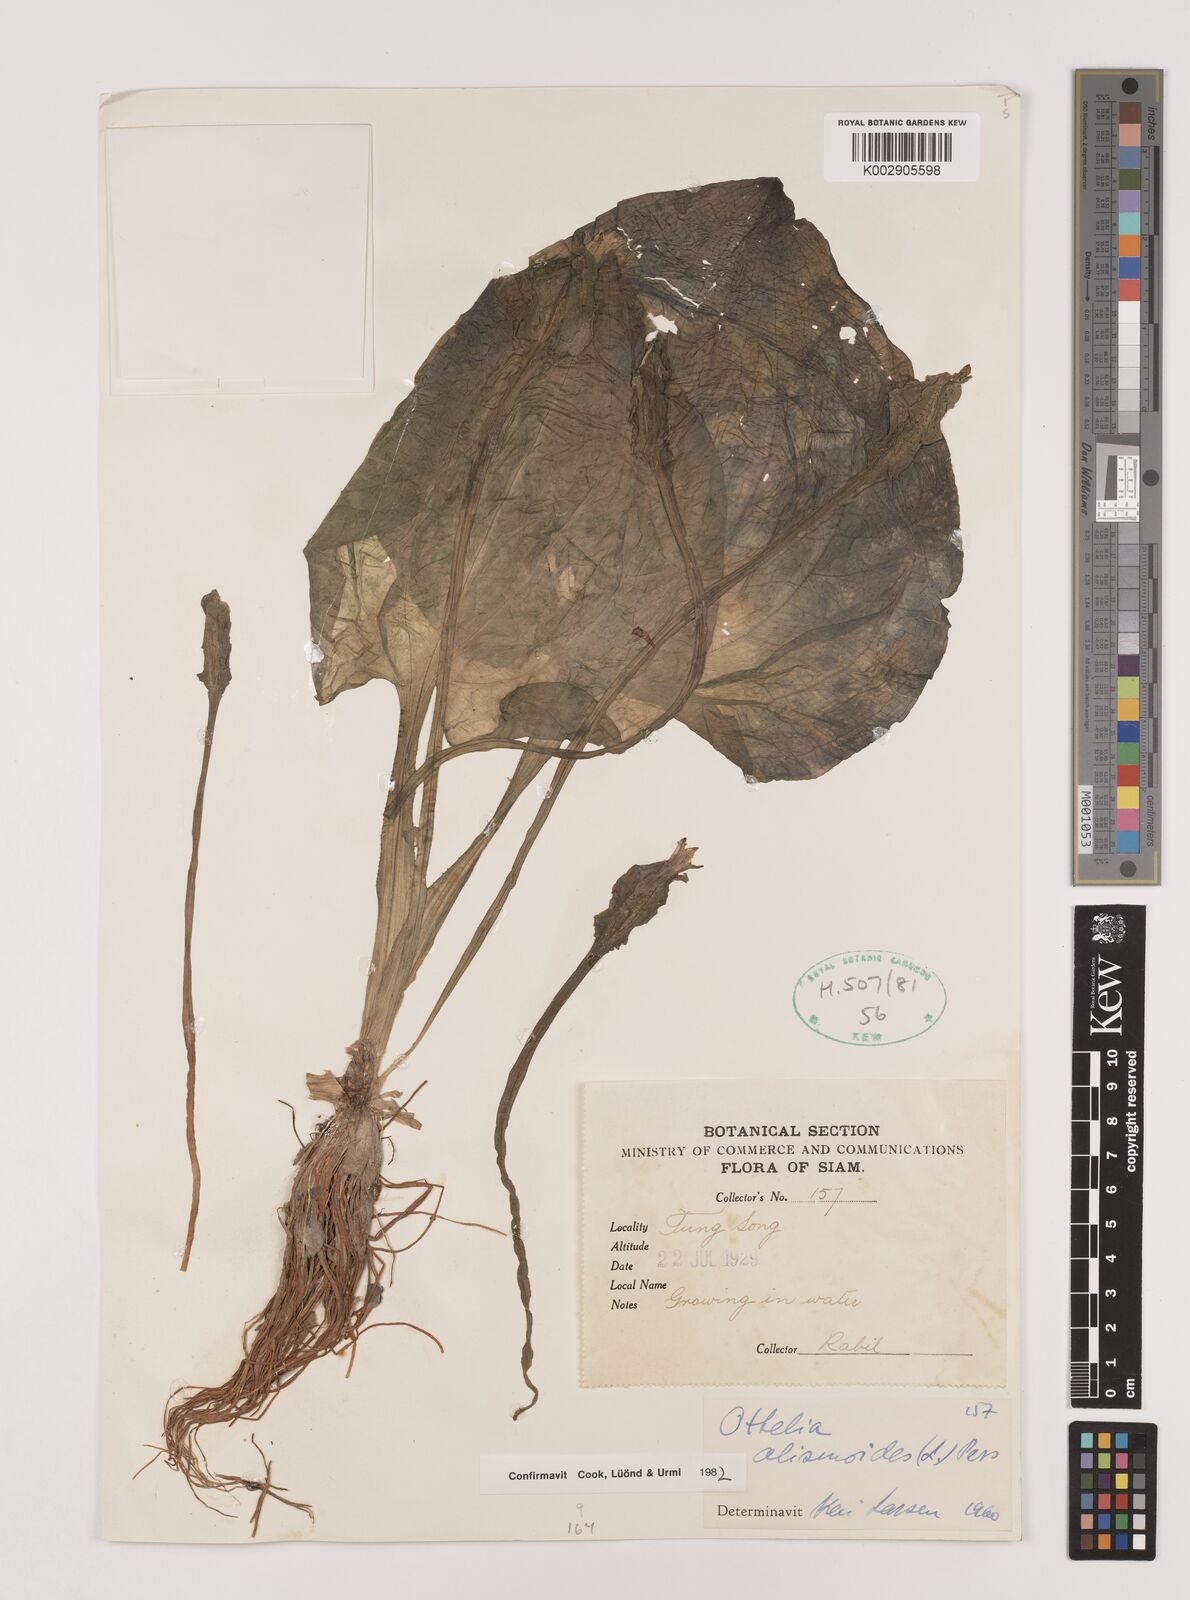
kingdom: Plantae
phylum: Tracheophyta
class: Liliopsida
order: Alismatales
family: Hydrocharitaceae
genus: Ottelia
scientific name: Ottelia alismoides
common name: Duck-lettuce
